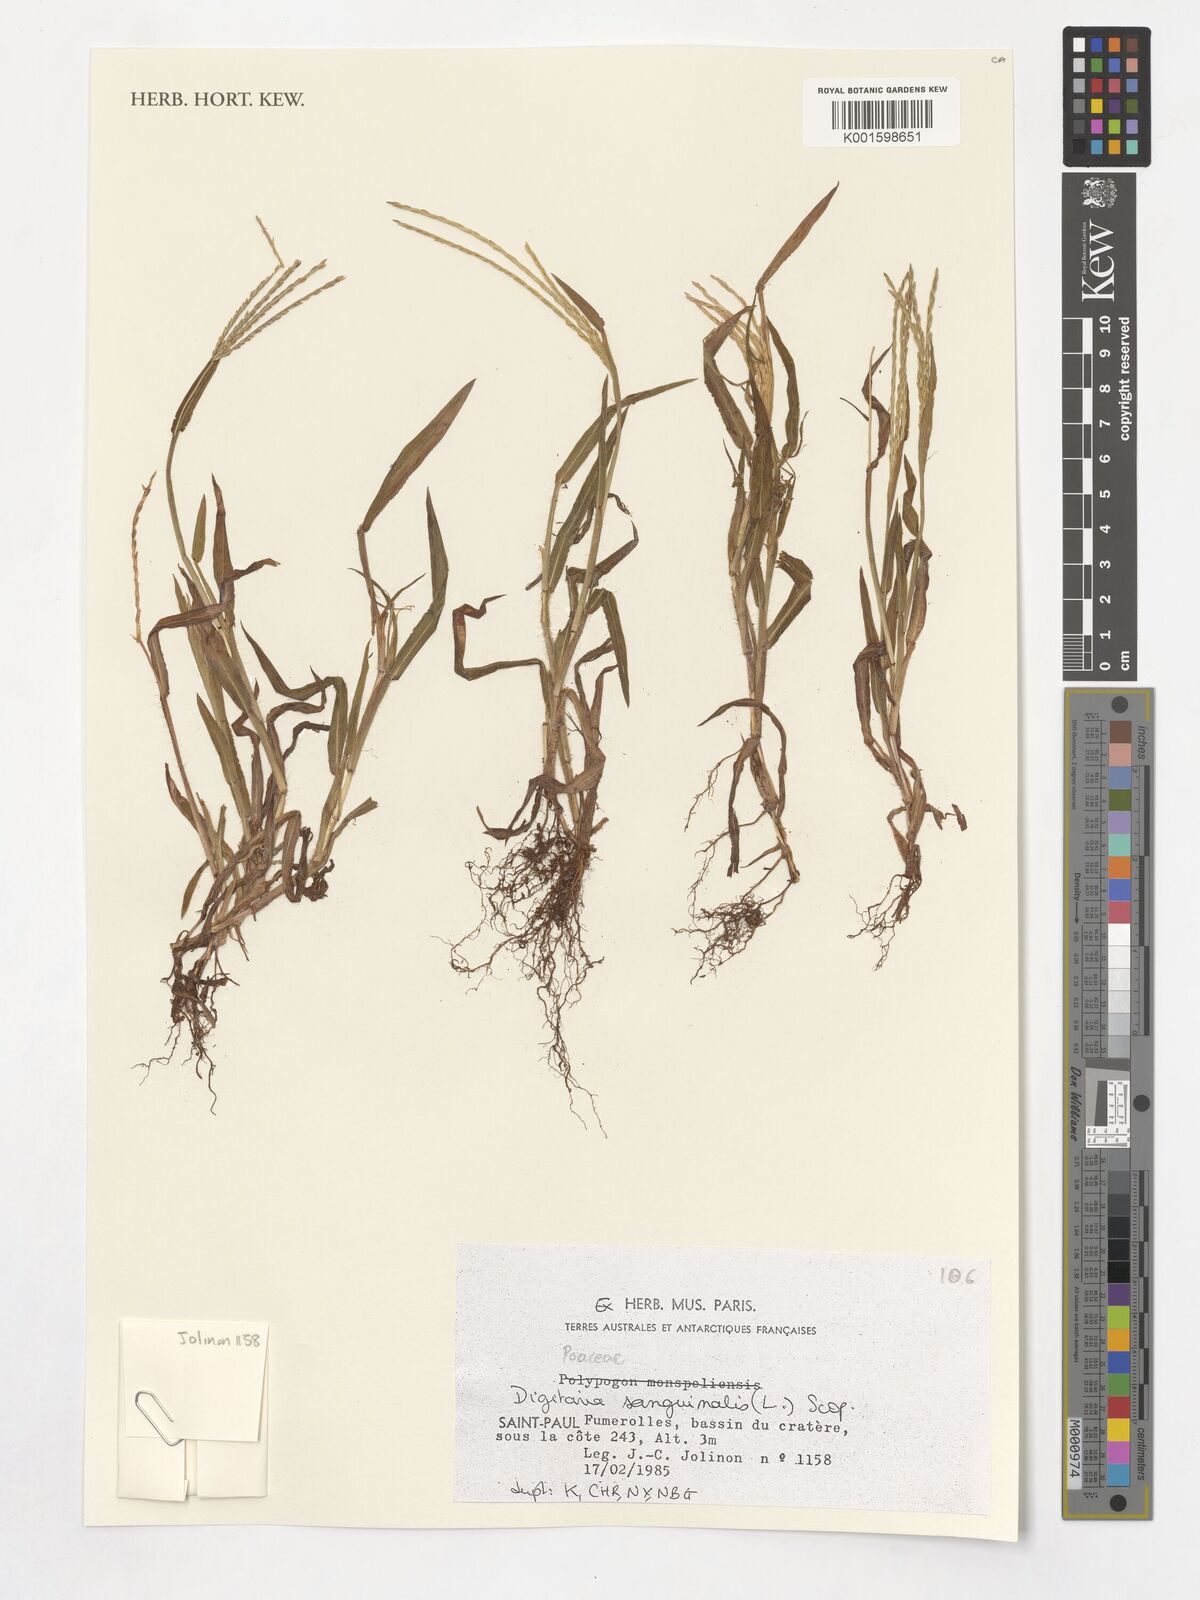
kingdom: Plantae
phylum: Tracheophyta
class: Liliopsida
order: Poales
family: Poaceae
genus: Digitaria
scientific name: Digitaria sanguinalis
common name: Hairy crabgrass
